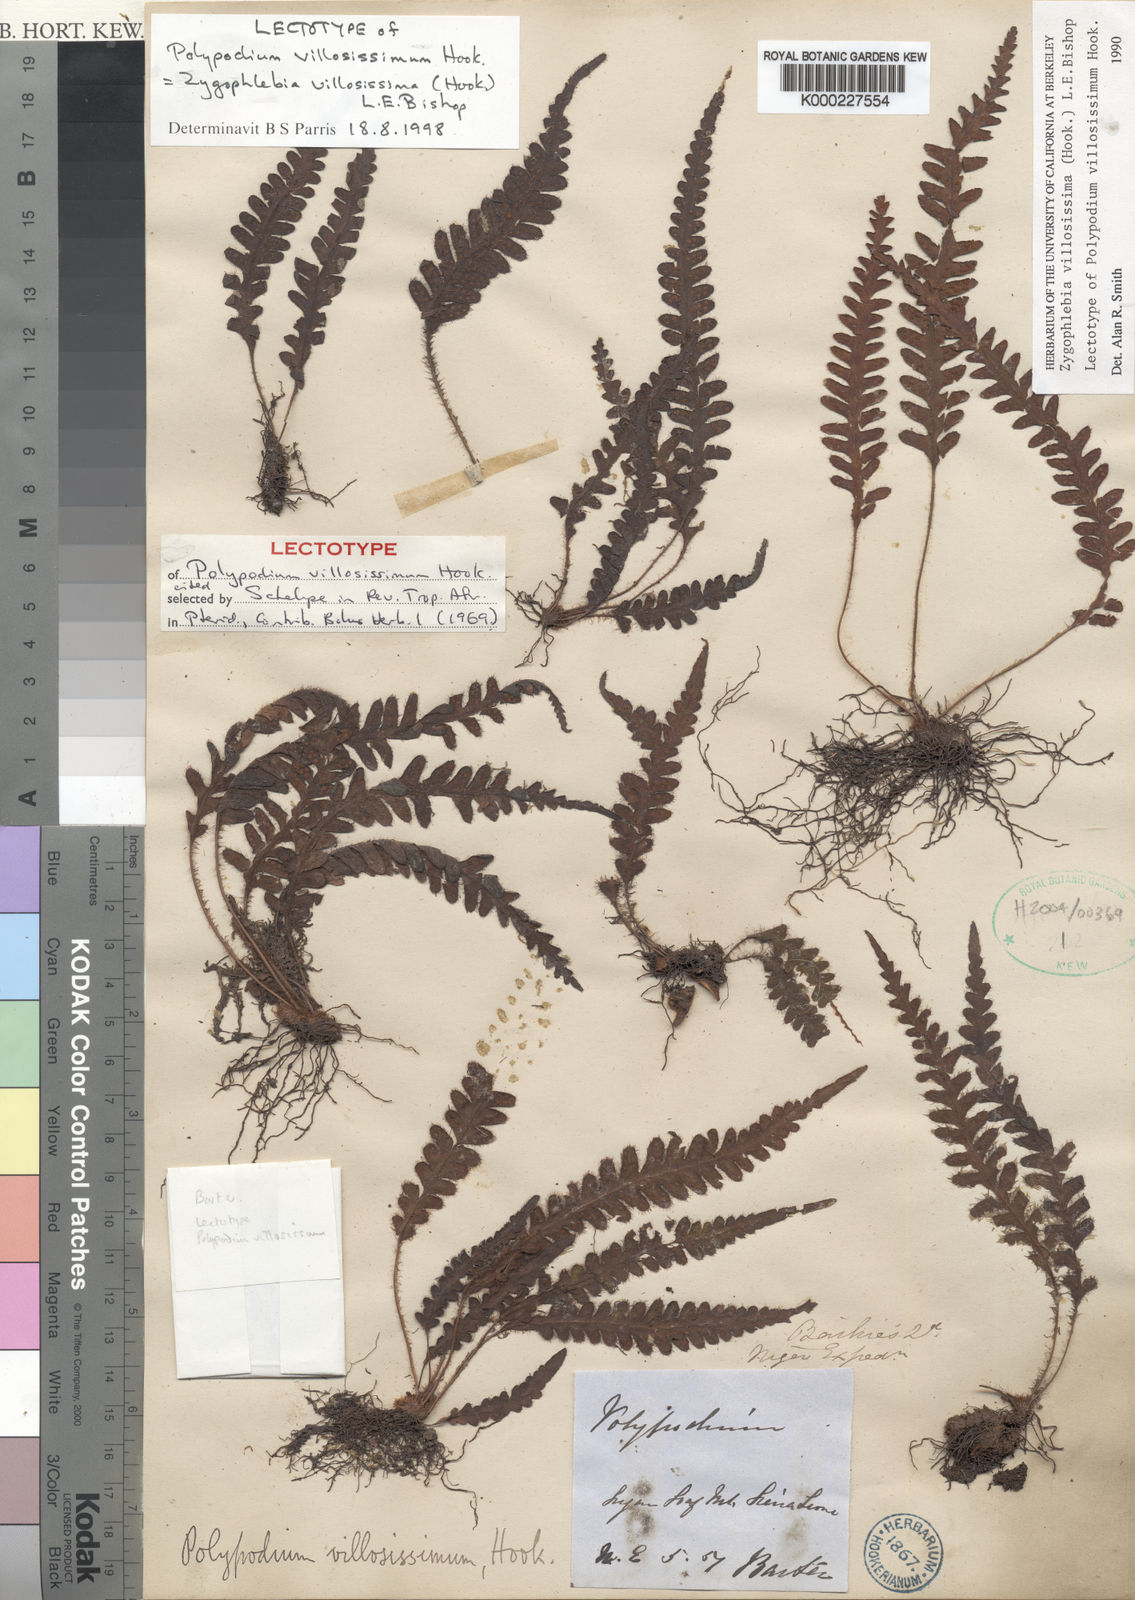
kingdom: Plantae
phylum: Tracheophyta
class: Polypodiopsida
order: Polypodiales
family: Polypodiaceae
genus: Enterosora
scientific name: Enterosora villosissima
